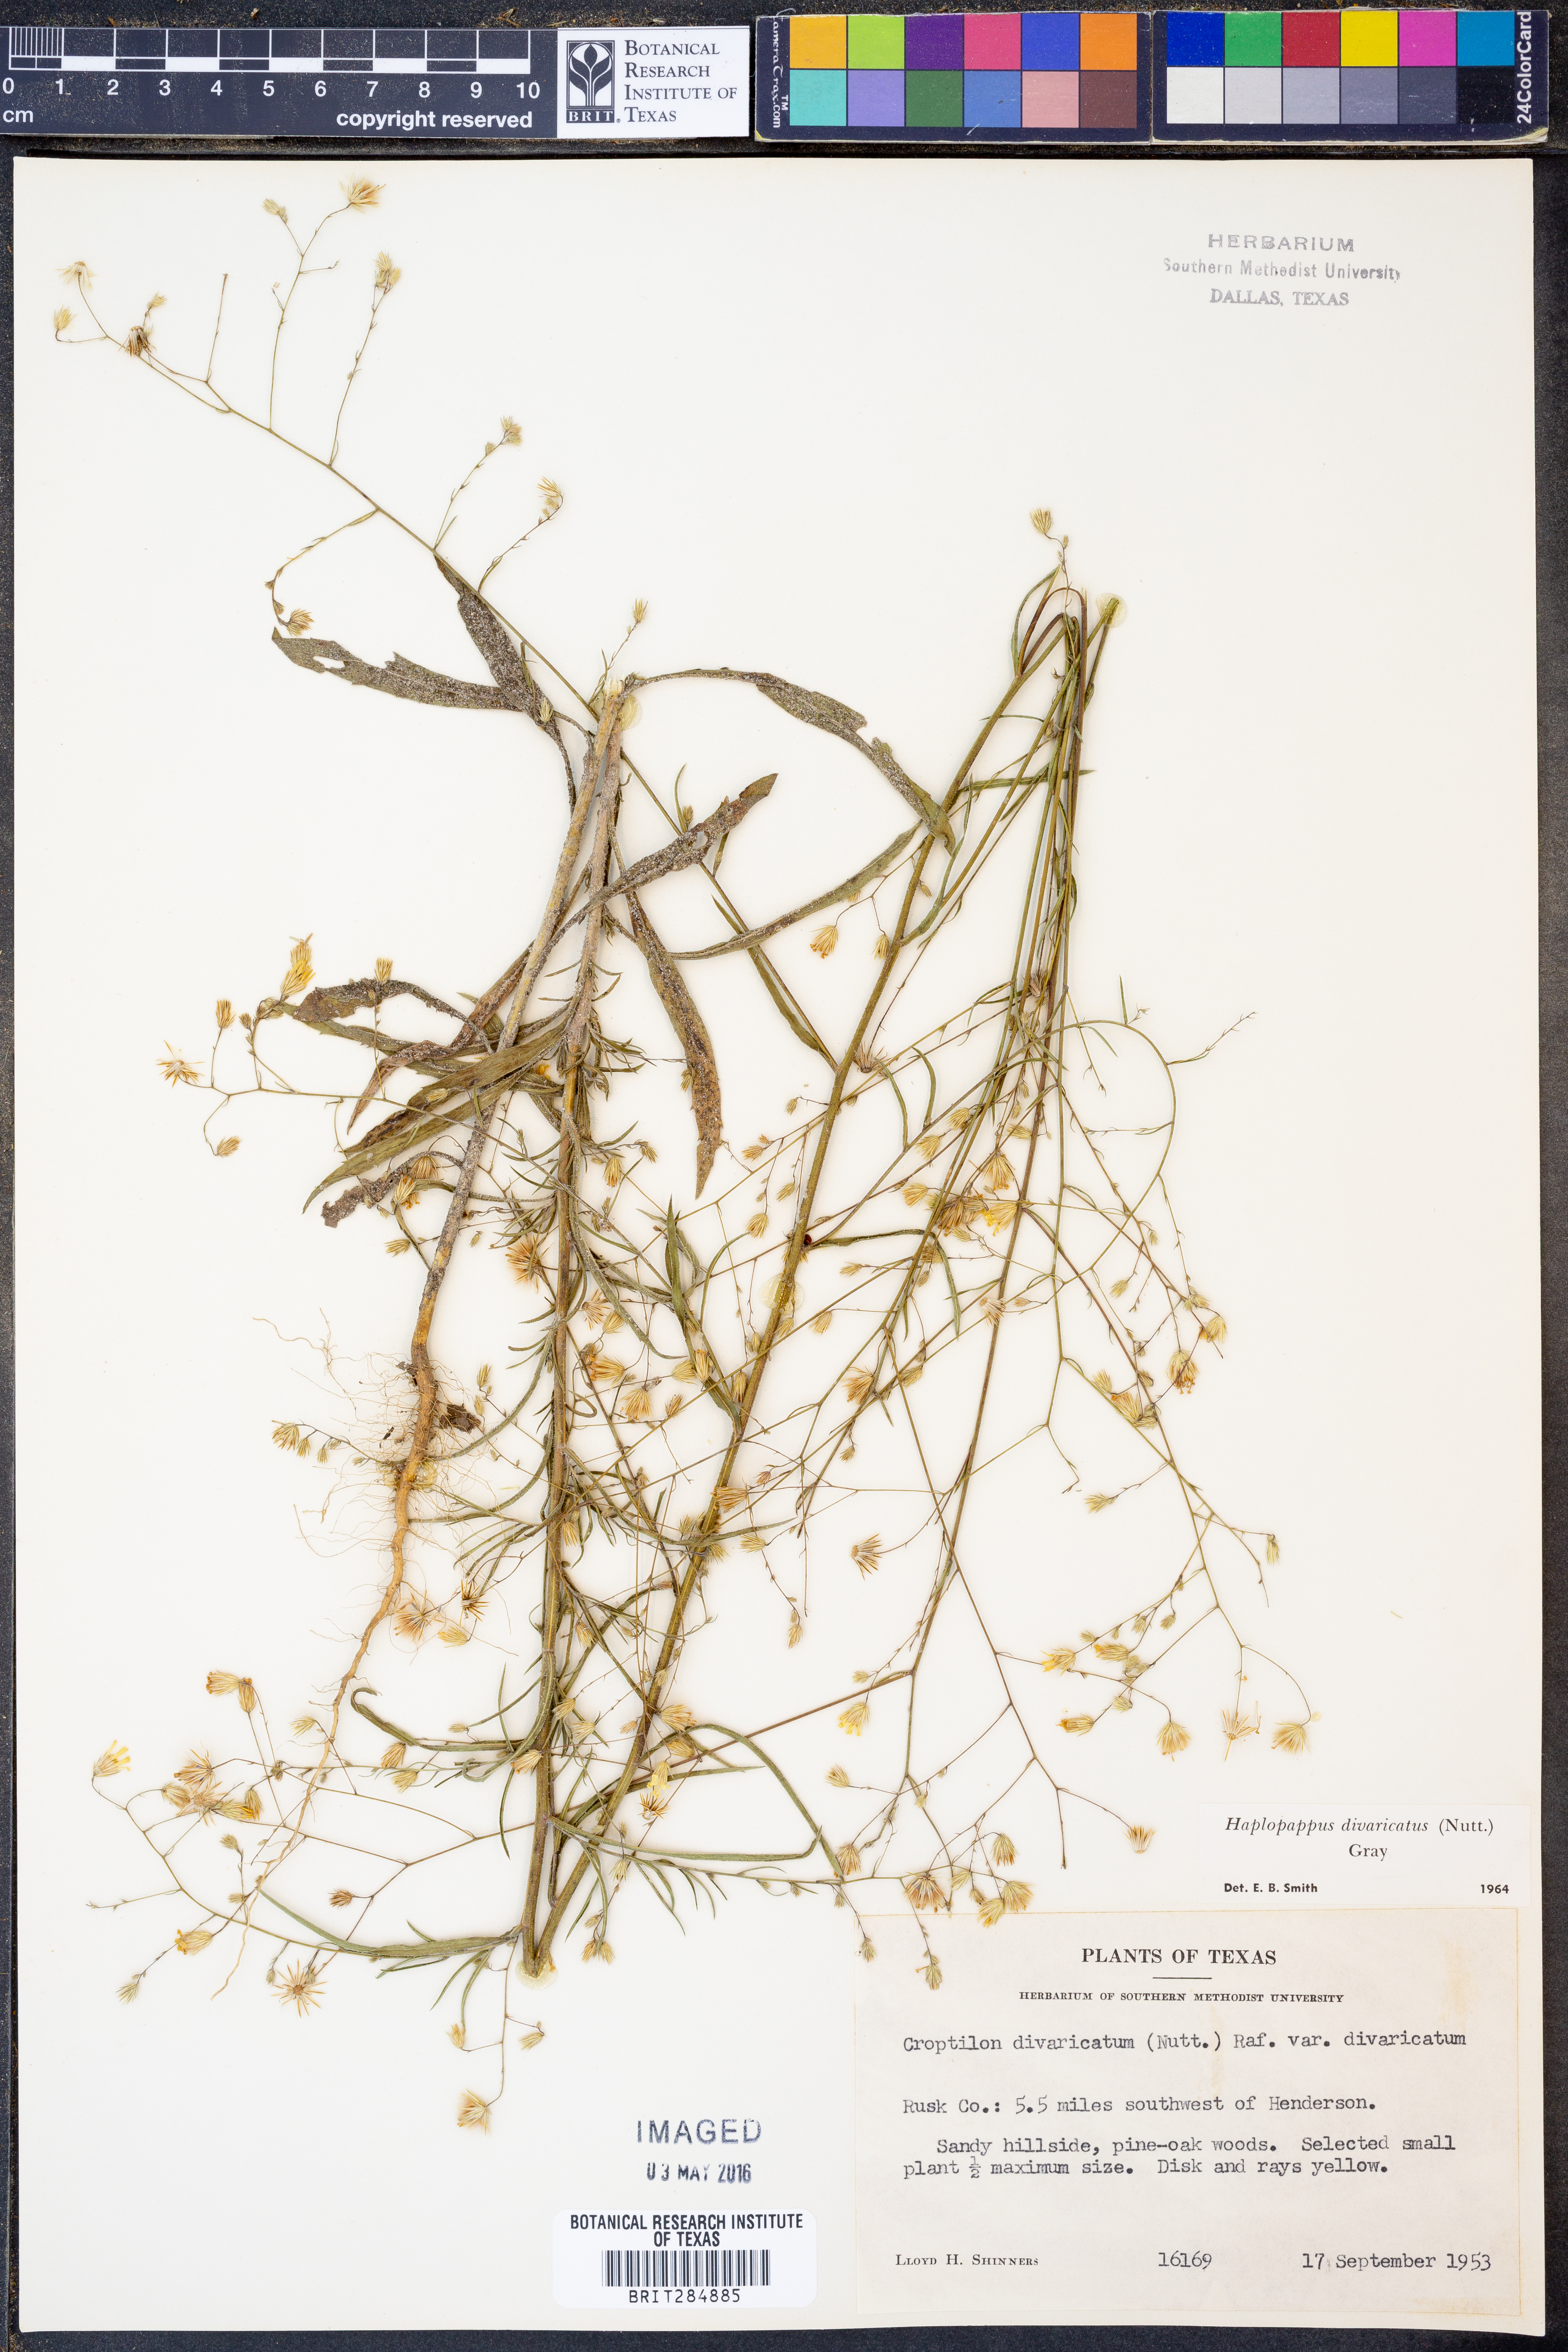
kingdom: Plantae
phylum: Tracheophyta
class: Magnoliopsida
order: Asterales
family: Asteraceae
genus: Croptilon
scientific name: Croptilon divaricatum
